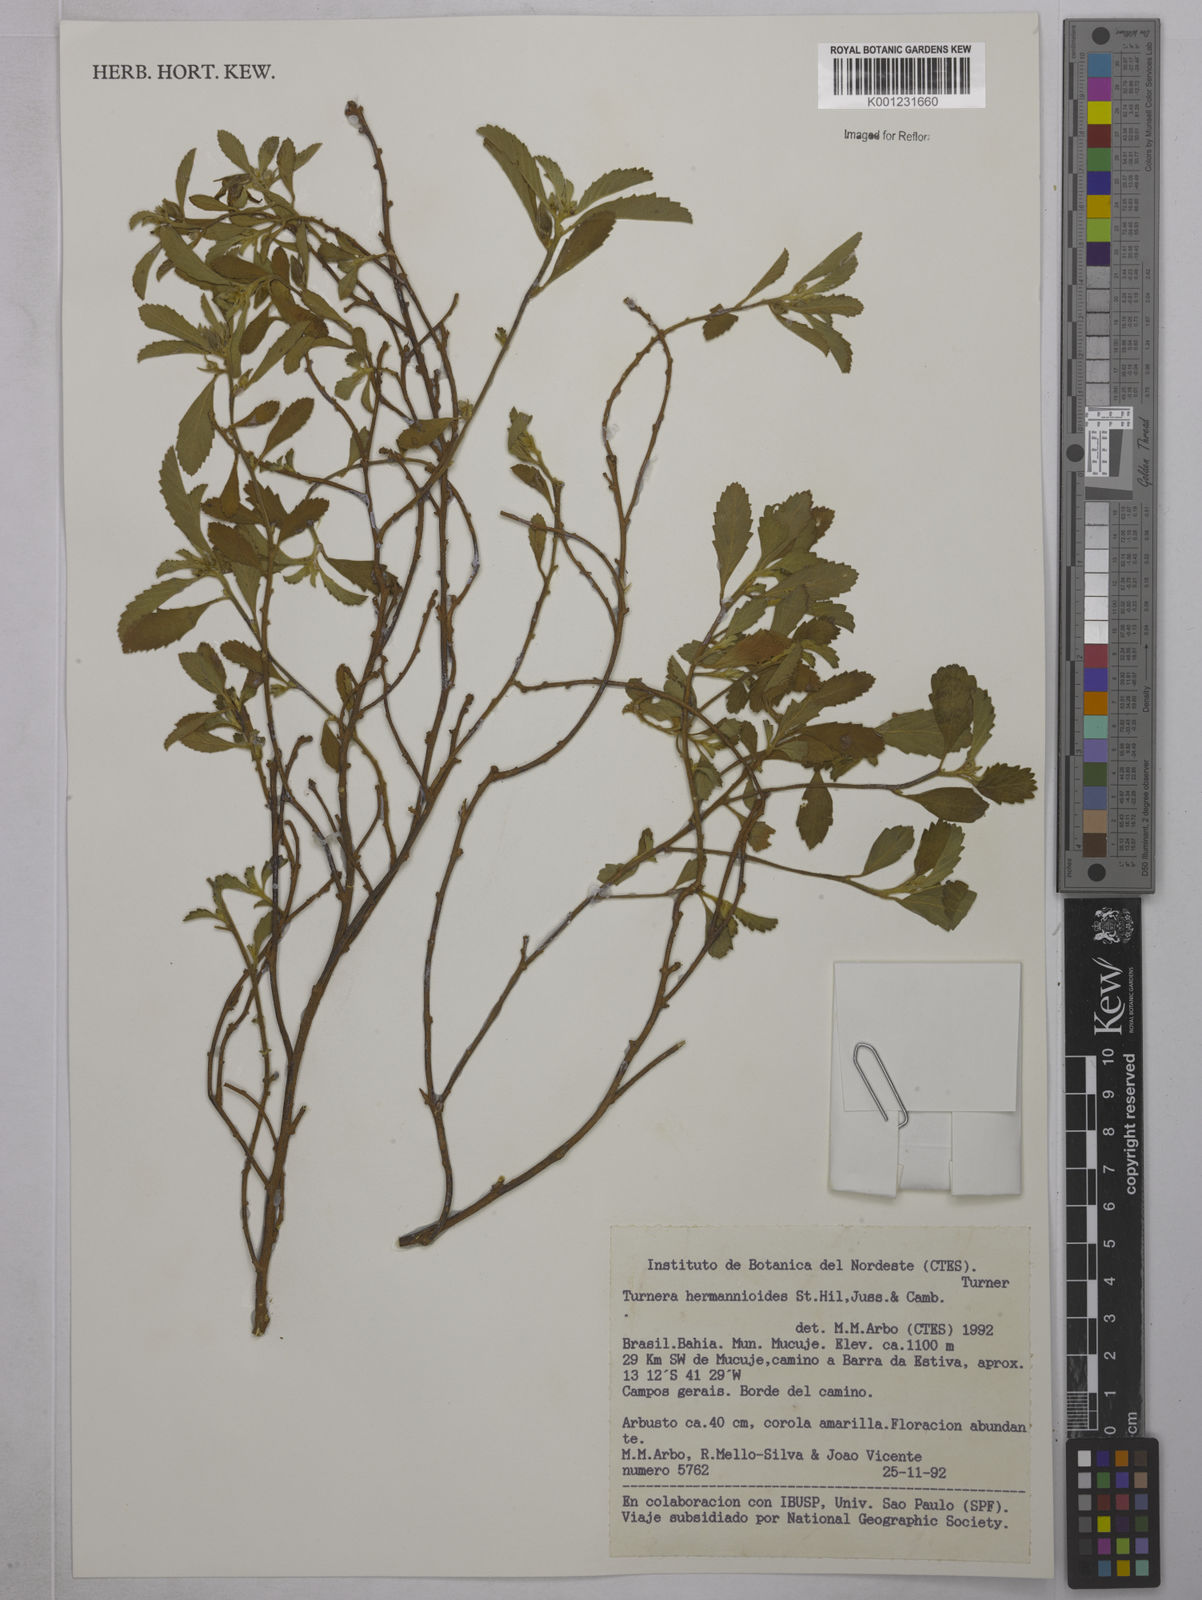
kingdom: Plantae
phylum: Tracheophyta
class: Magnoliopsida
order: Malpighiales
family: Turneraceae
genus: Turnera
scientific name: Turnera hermannioides
